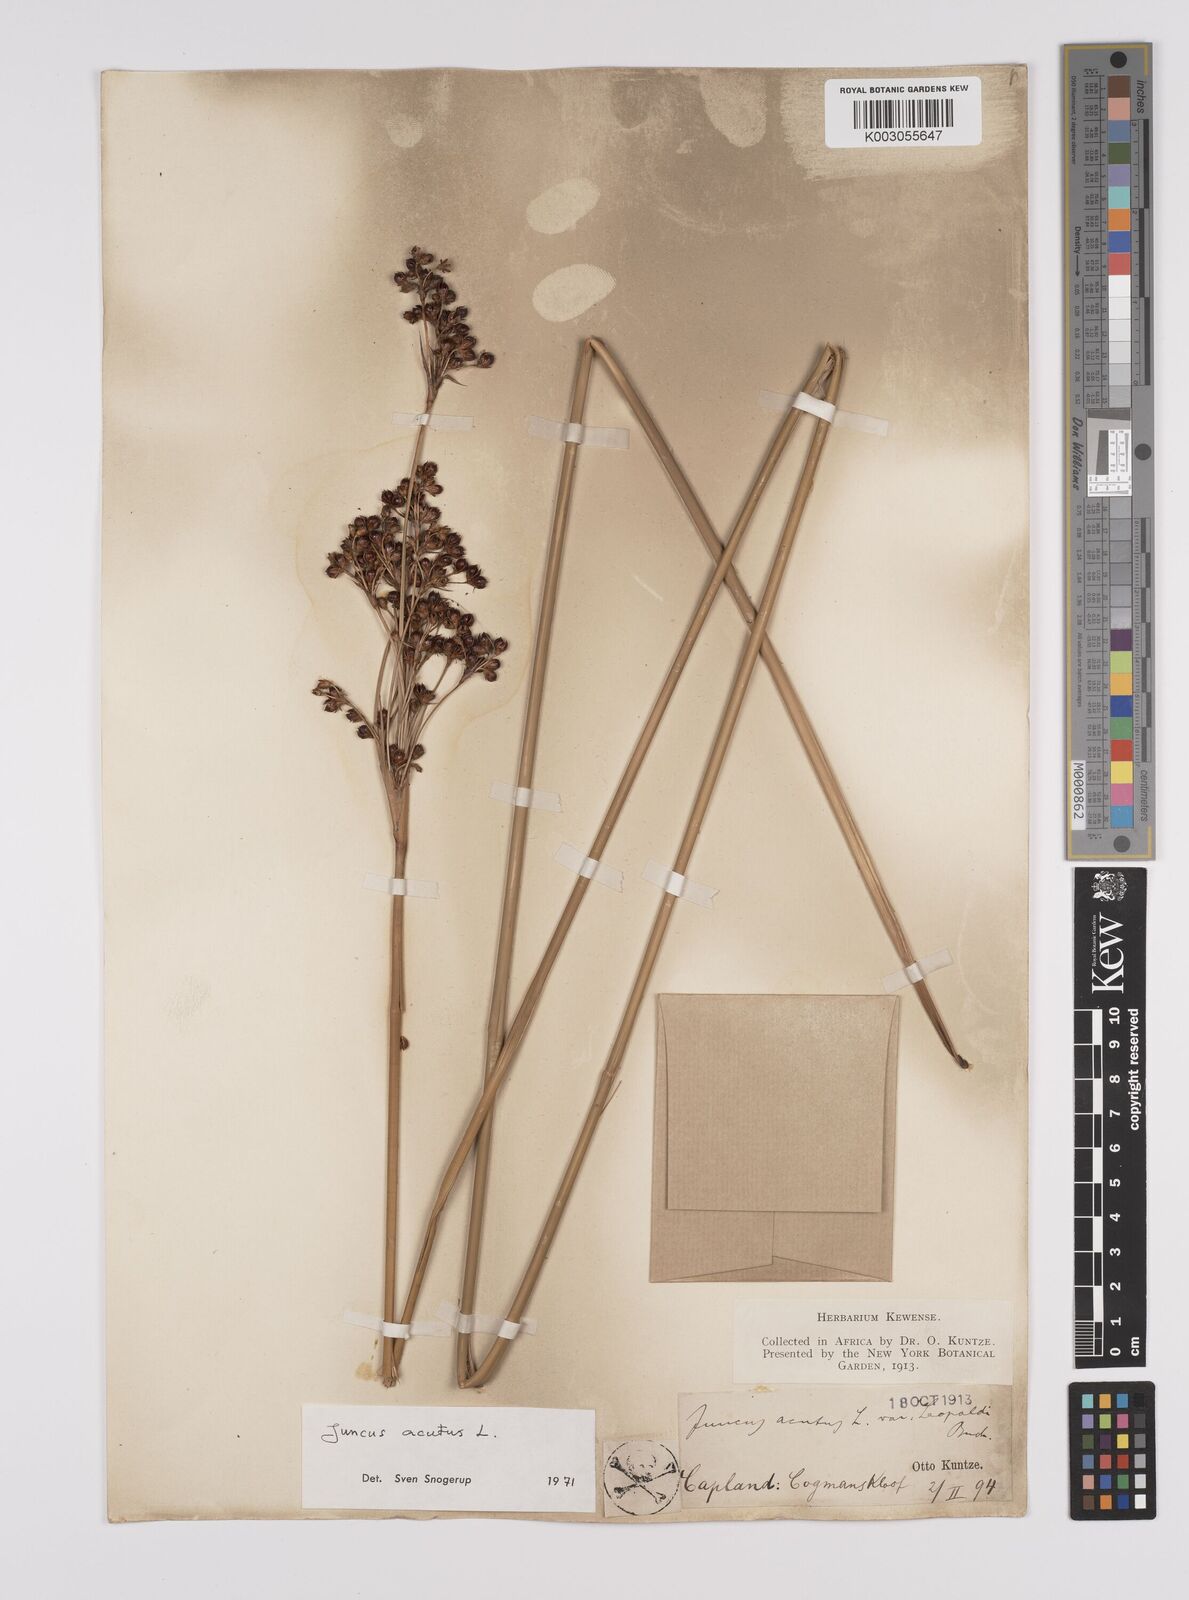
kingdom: Plantae
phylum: Tracheophyta
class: Liliopsida
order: Poales
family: Juncaceae
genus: Juncus
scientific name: Juncus acutus
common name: Sharp rush
